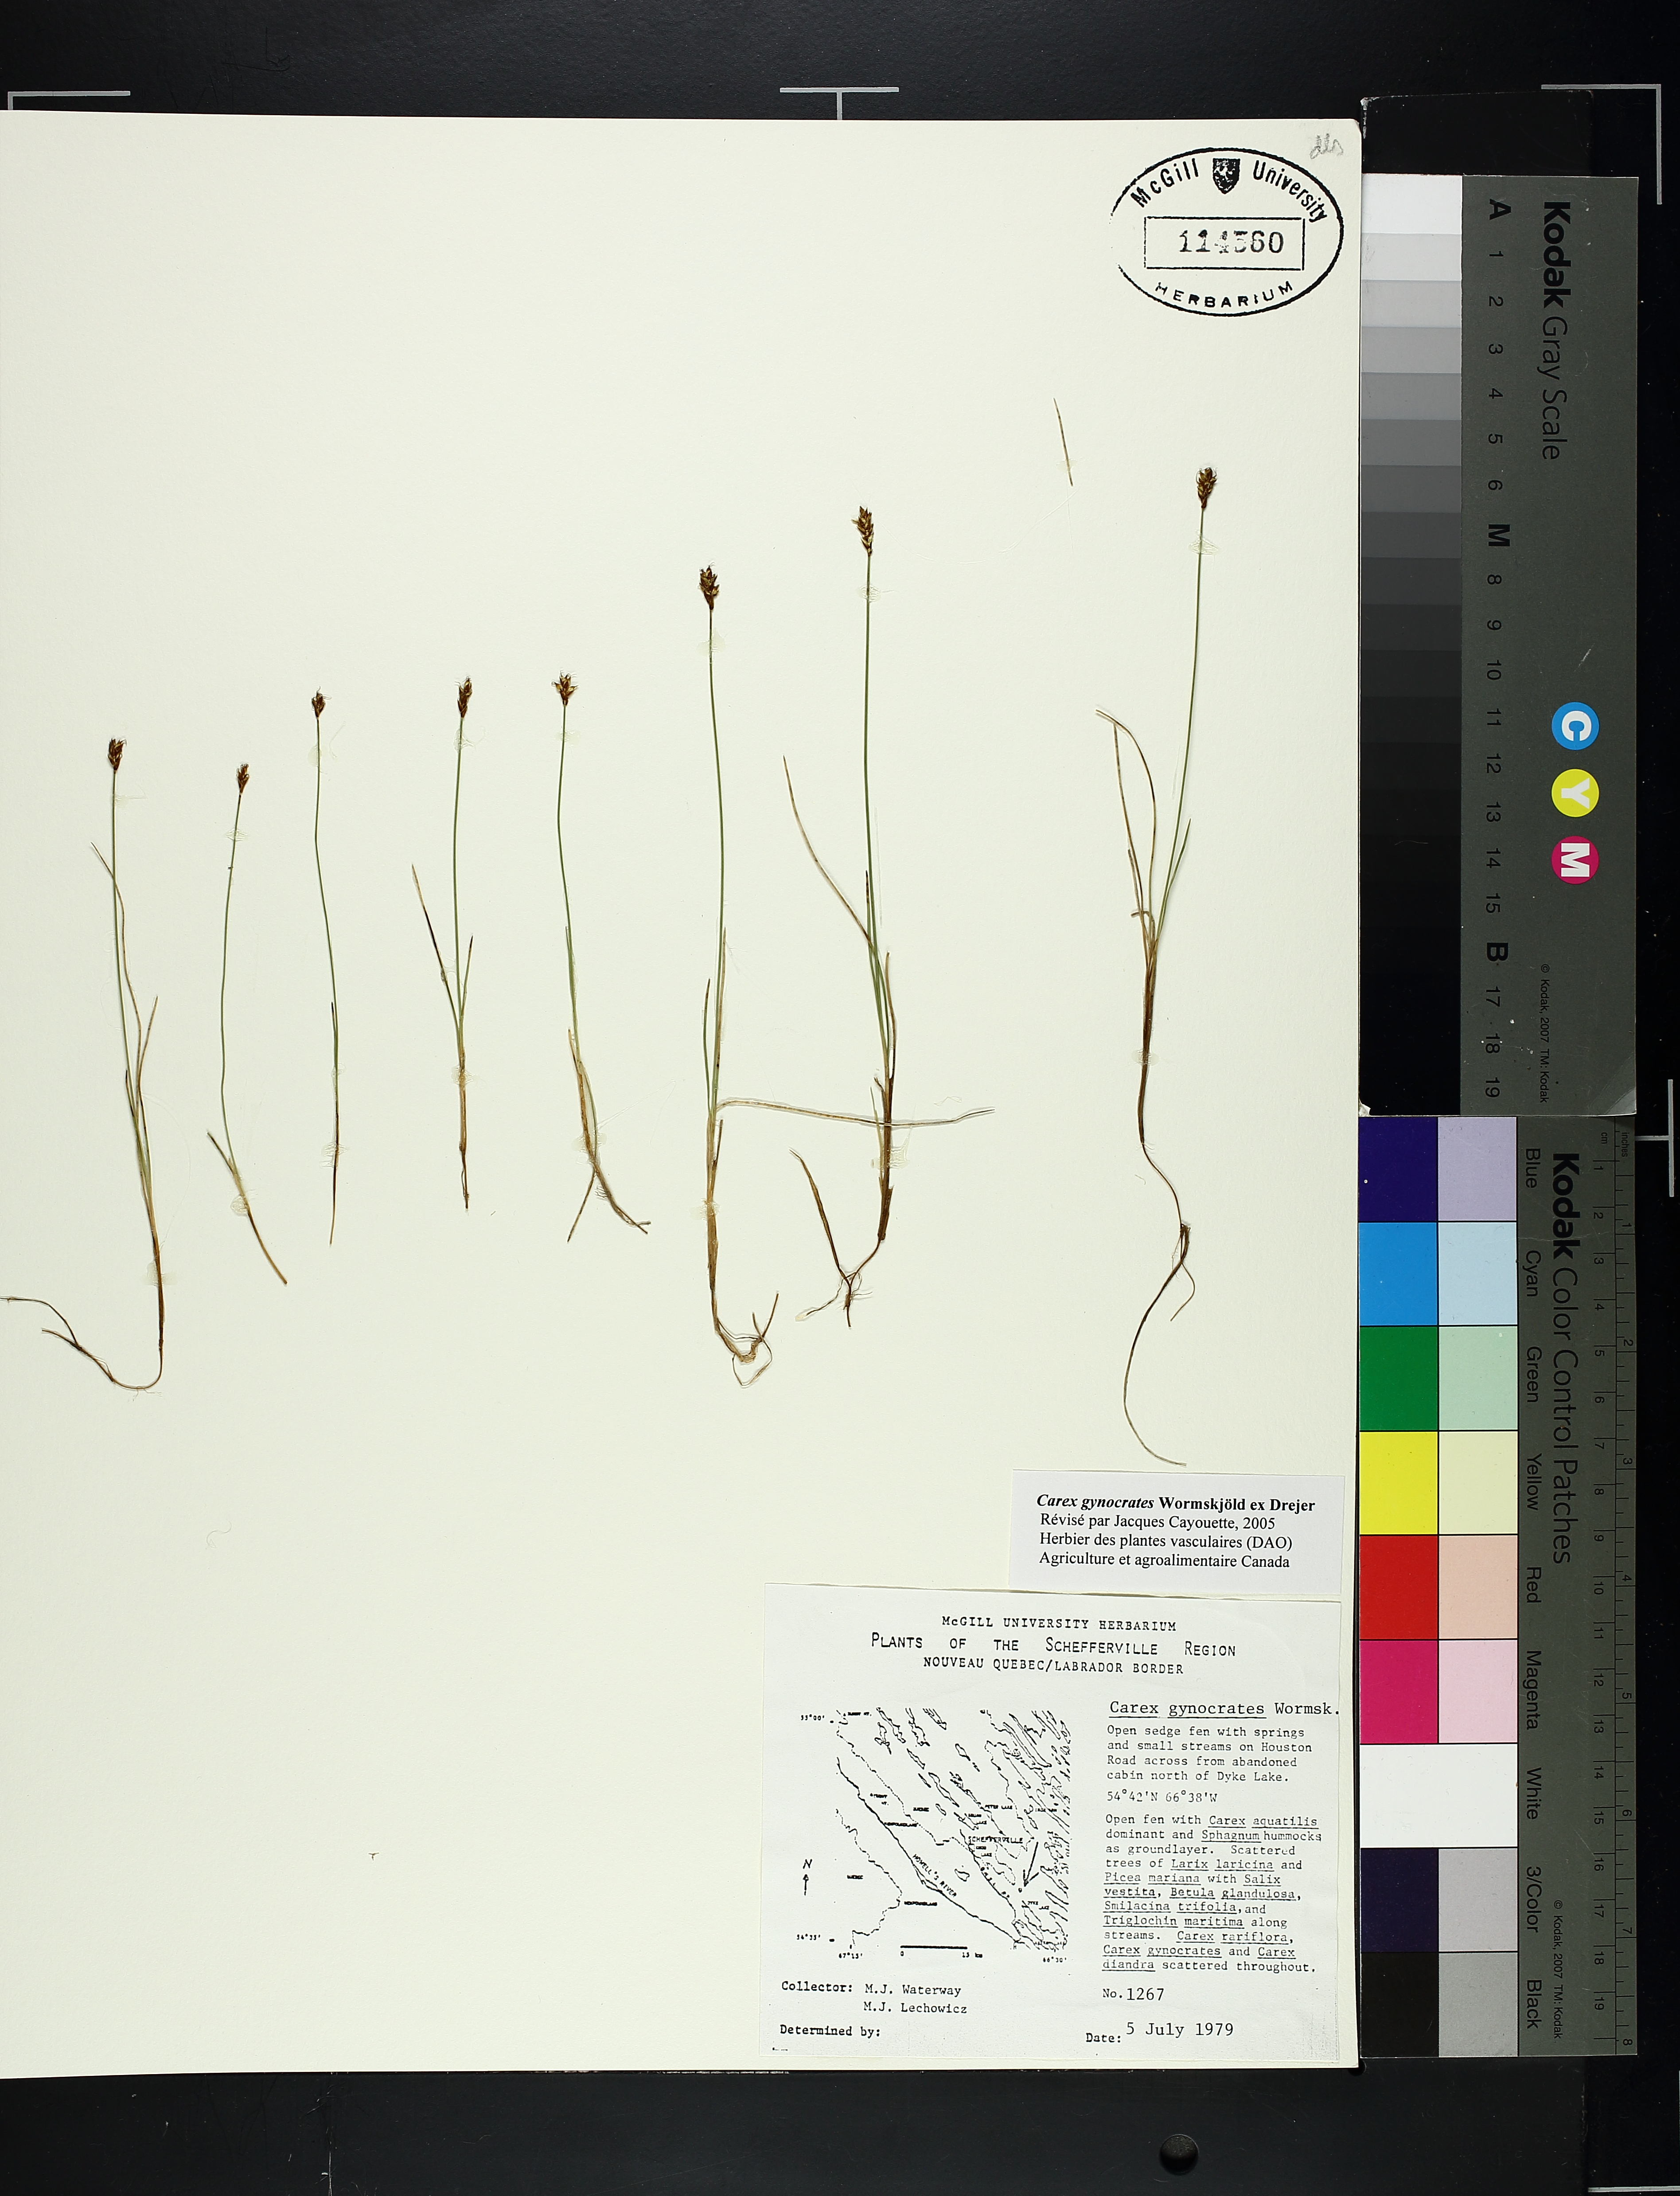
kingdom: Plantae
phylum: Tracheophyta
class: Liliopsida
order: Poales
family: Cyperaceae
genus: Carex
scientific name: Carex gynocrates
